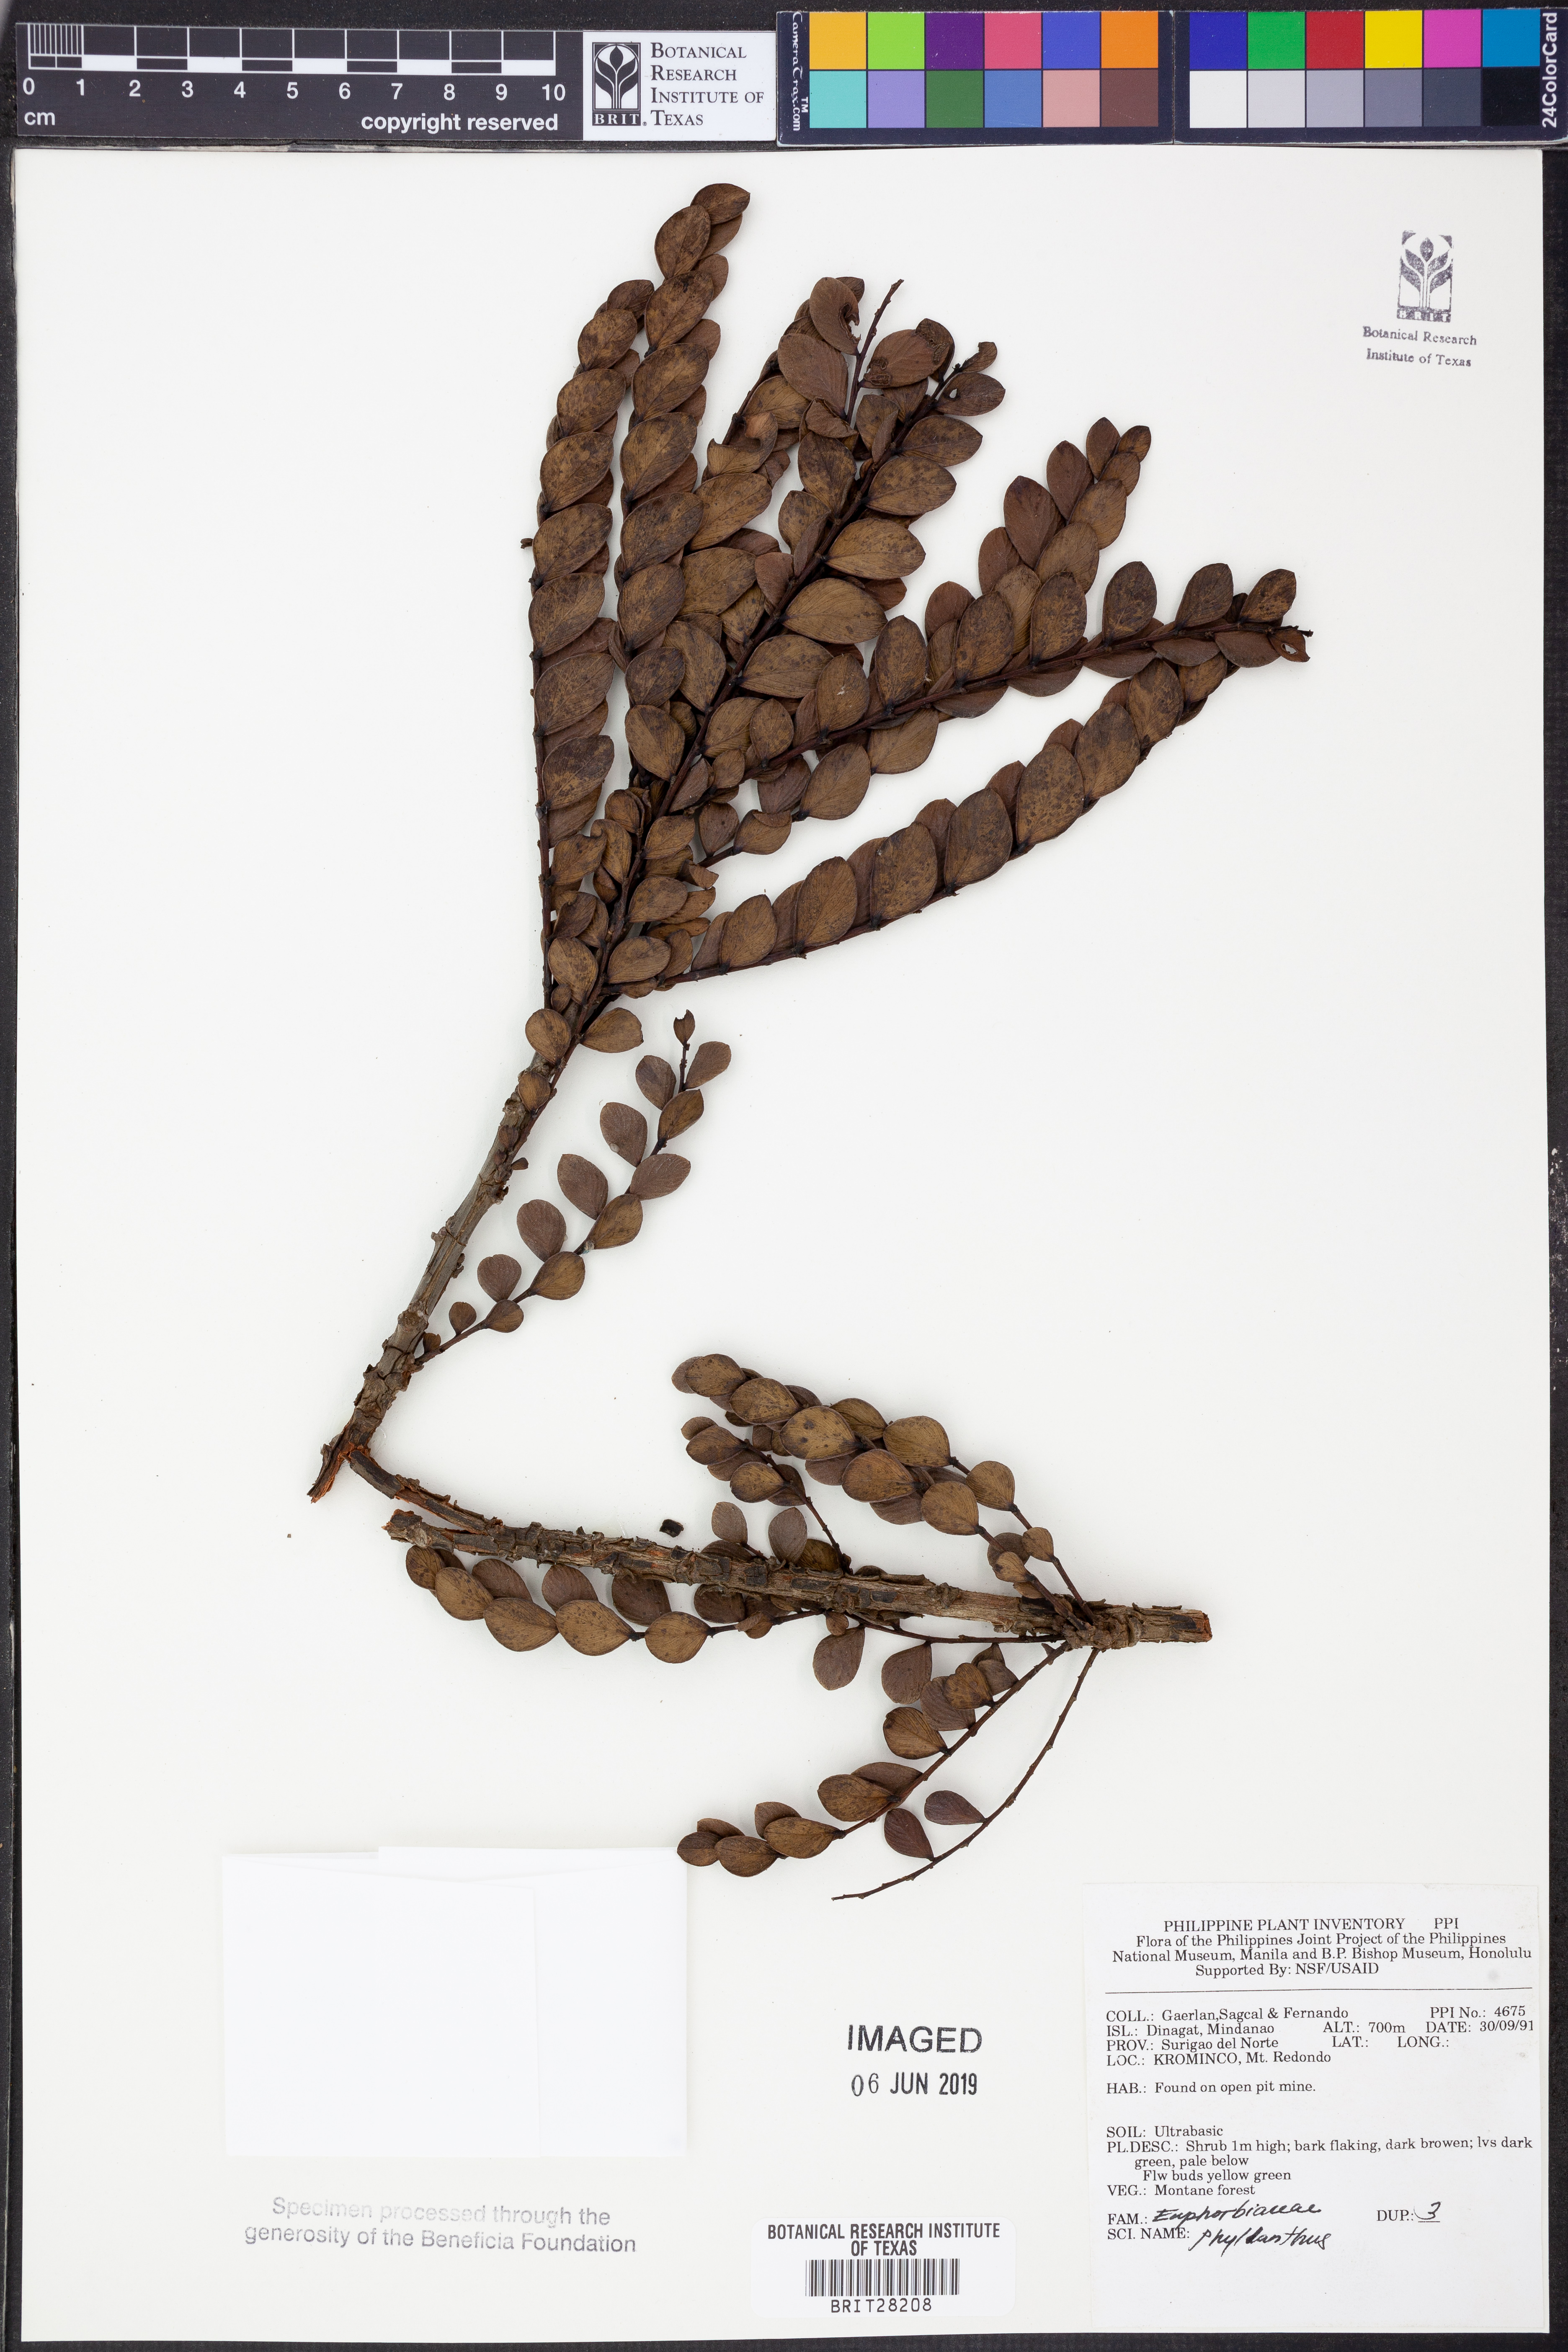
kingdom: Plantae
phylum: Tracheophyta
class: Magnoliopsida
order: Malpighiales
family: Phyllanthaceae
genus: Phyllanthus
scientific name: Phyllanthus
